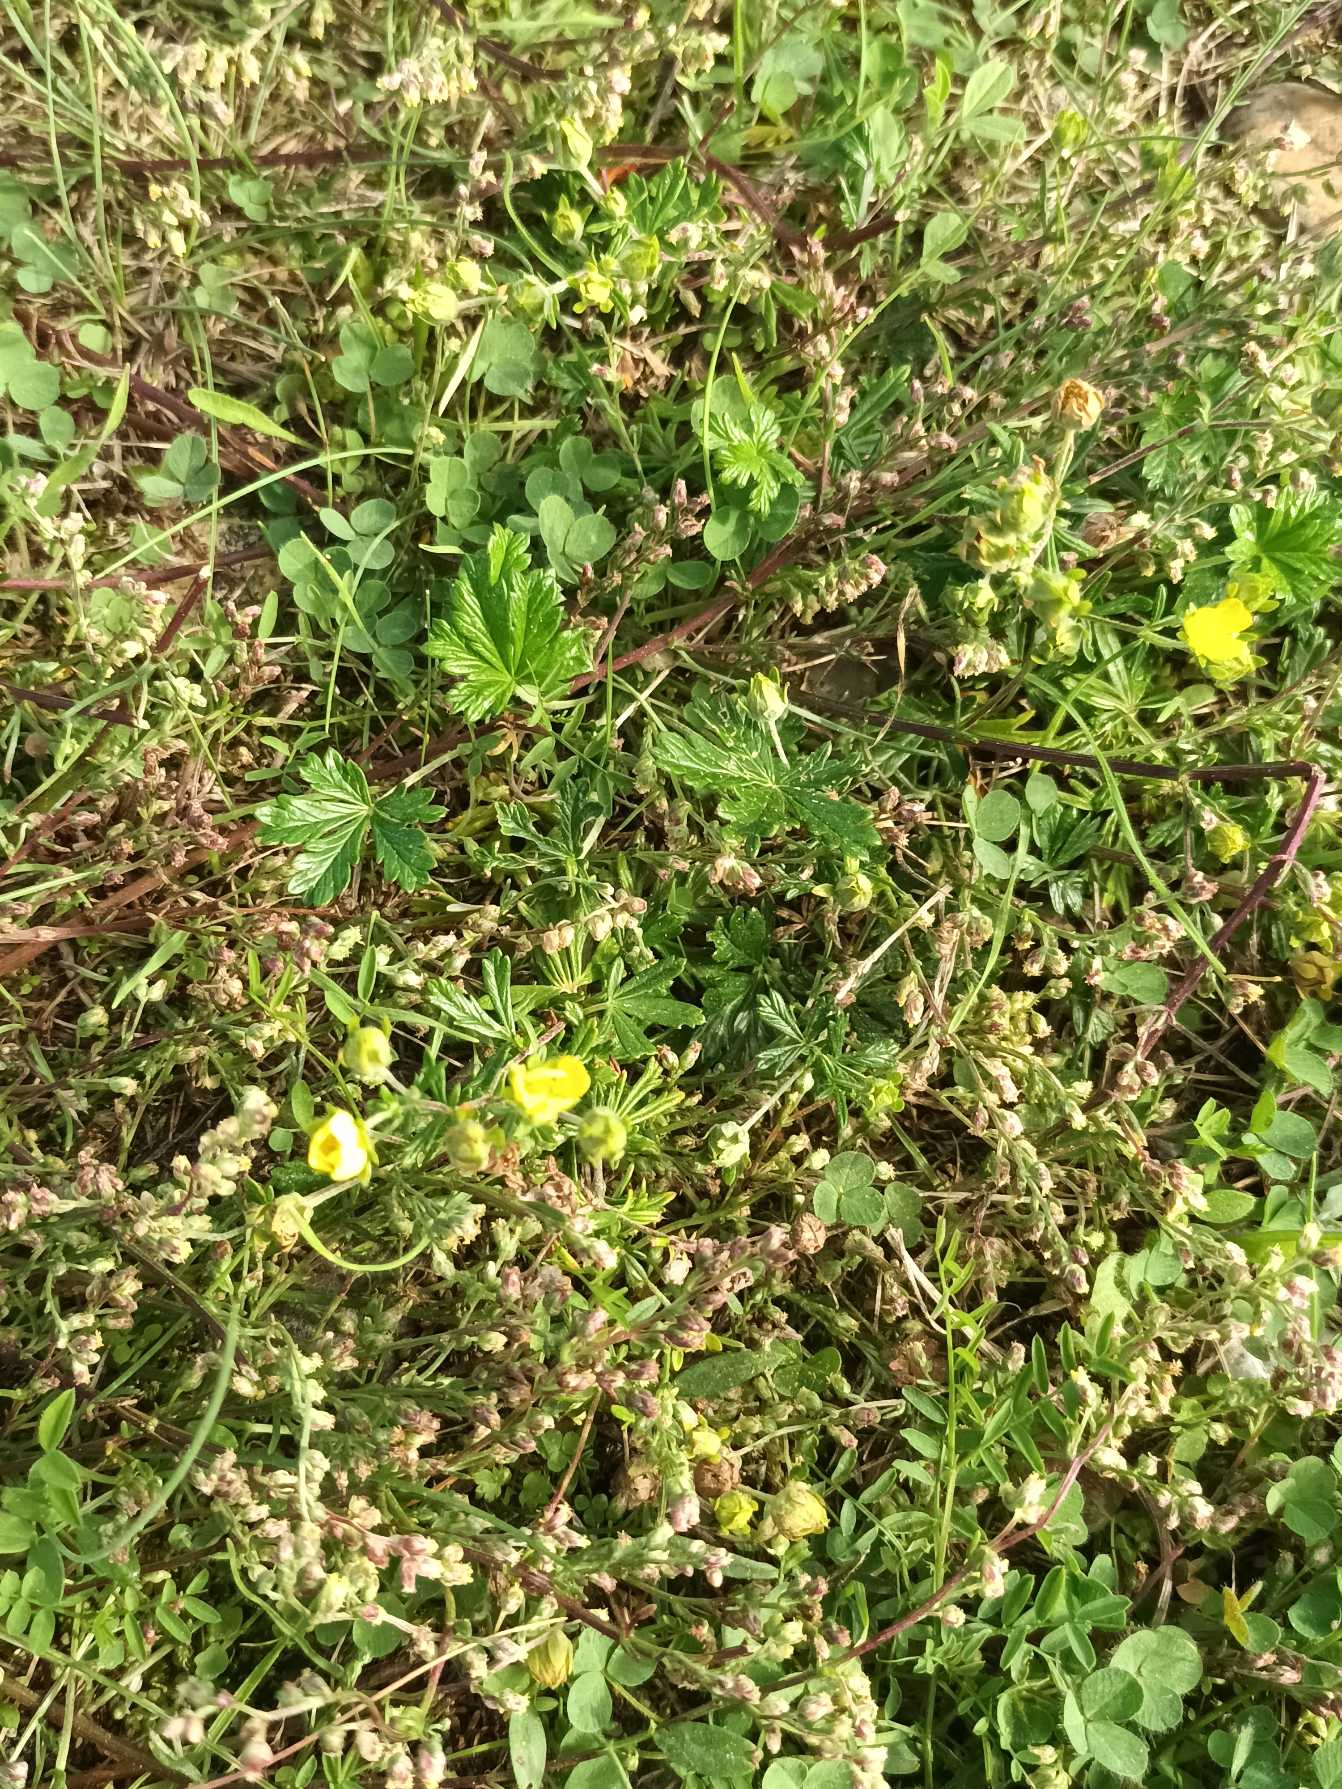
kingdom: Plantae
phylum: Tracheophyta
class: Magnoliopsida
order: Rosales
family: Rosaceae
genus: Potentilla
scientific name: Potentilla argentea
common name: Sølv-potentil
